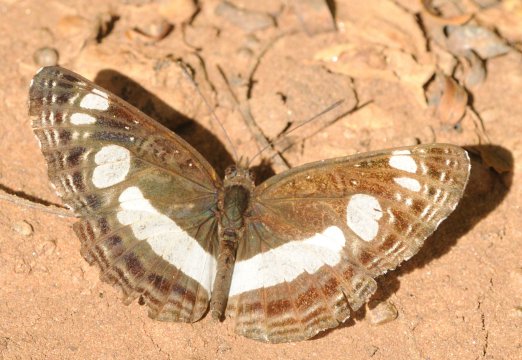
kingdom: Animalia
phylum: Arthropoda
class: Insecta
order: Lepidoptera
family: Nymphalidae
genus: Neptis
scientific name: Neptis saclava
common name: Spotted Sailer
